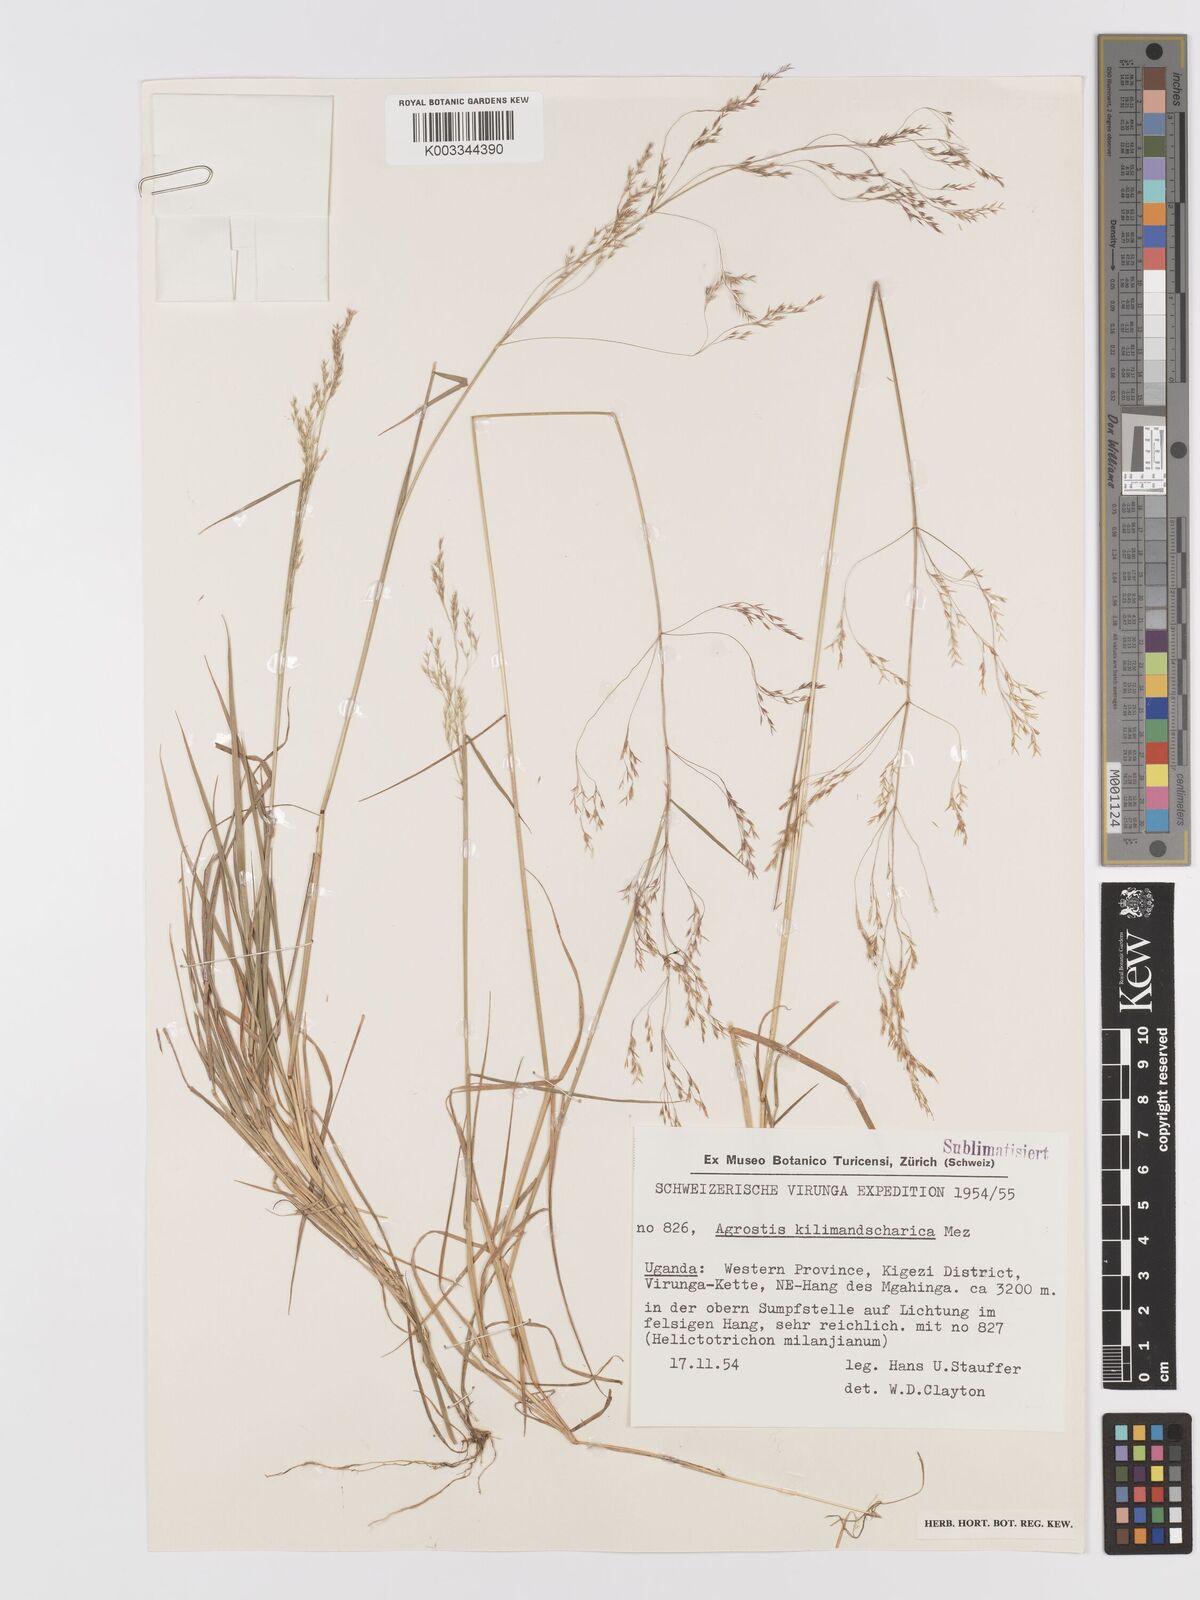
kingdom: Plantae
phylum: Tracheophyta
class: Liliopsida
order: Poales
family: Poaceae
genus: Agrostis
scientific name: Agrostis kilimandscharica
